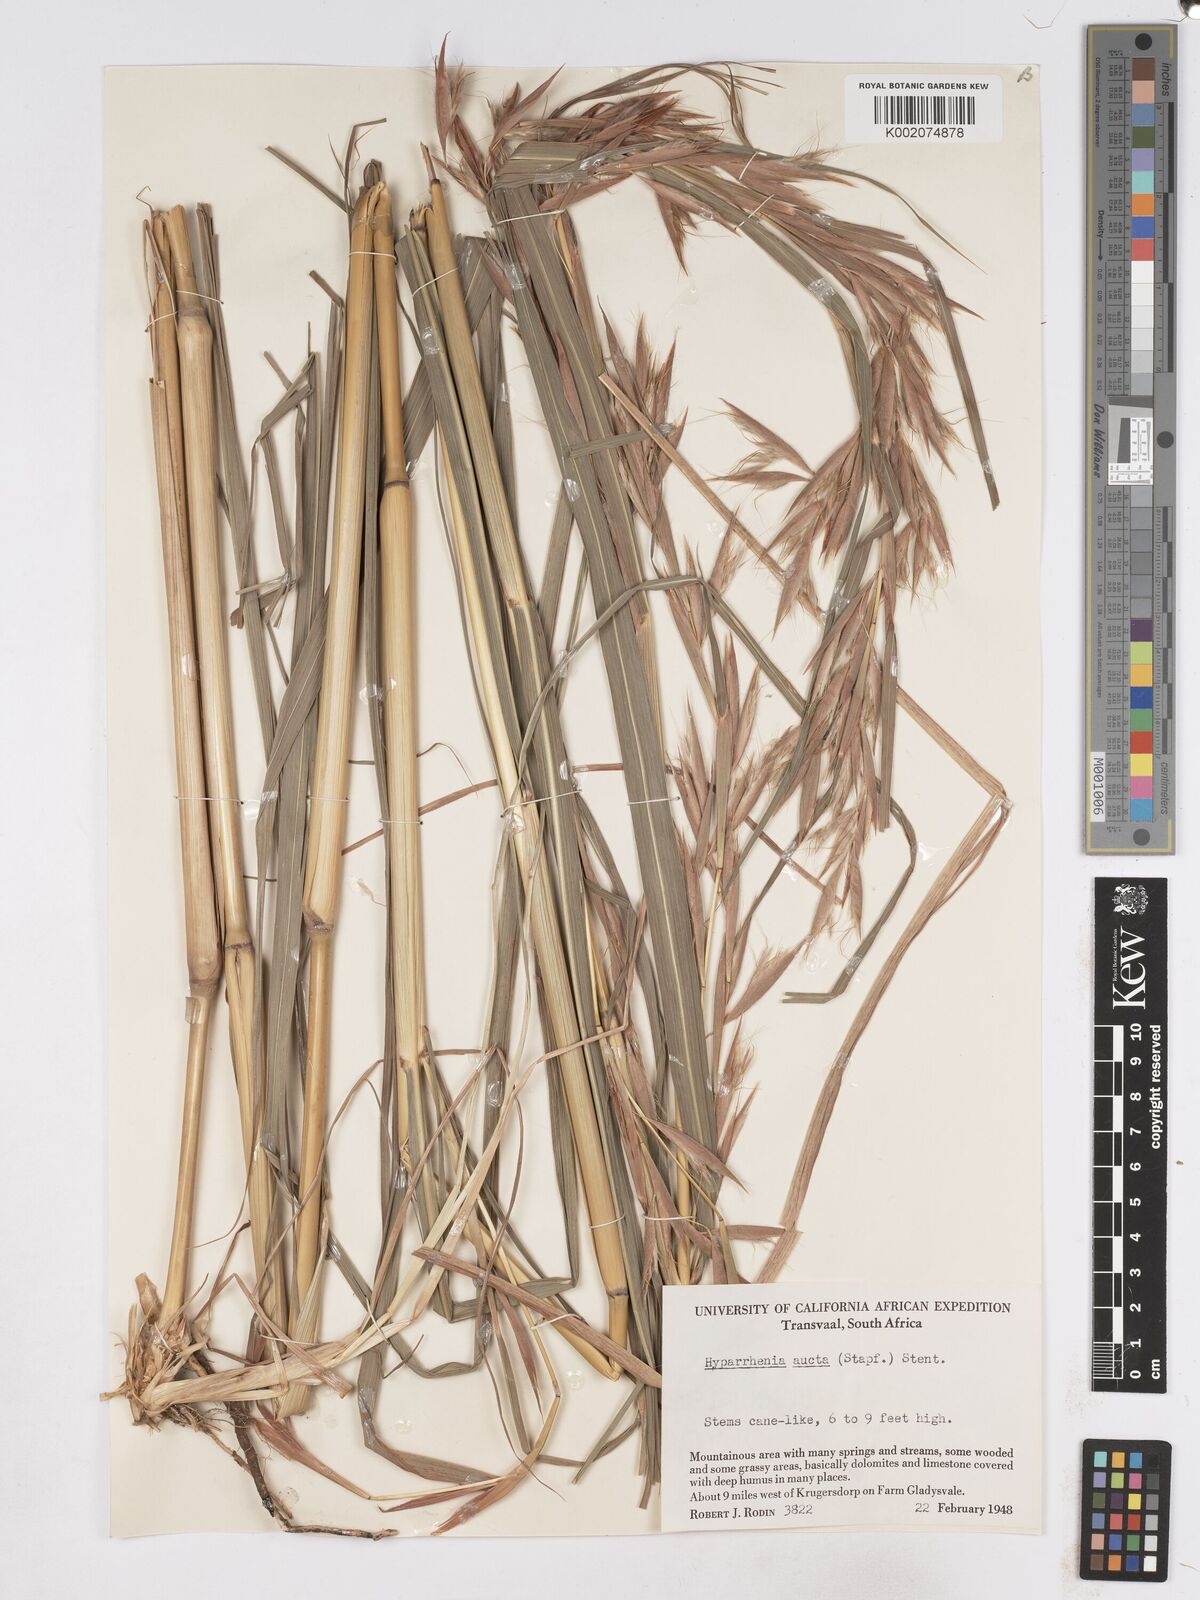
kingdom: Plantae
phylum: Tracheophyta
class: Liliopsida
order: Poales
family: Poaceae
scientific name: Poaceae
